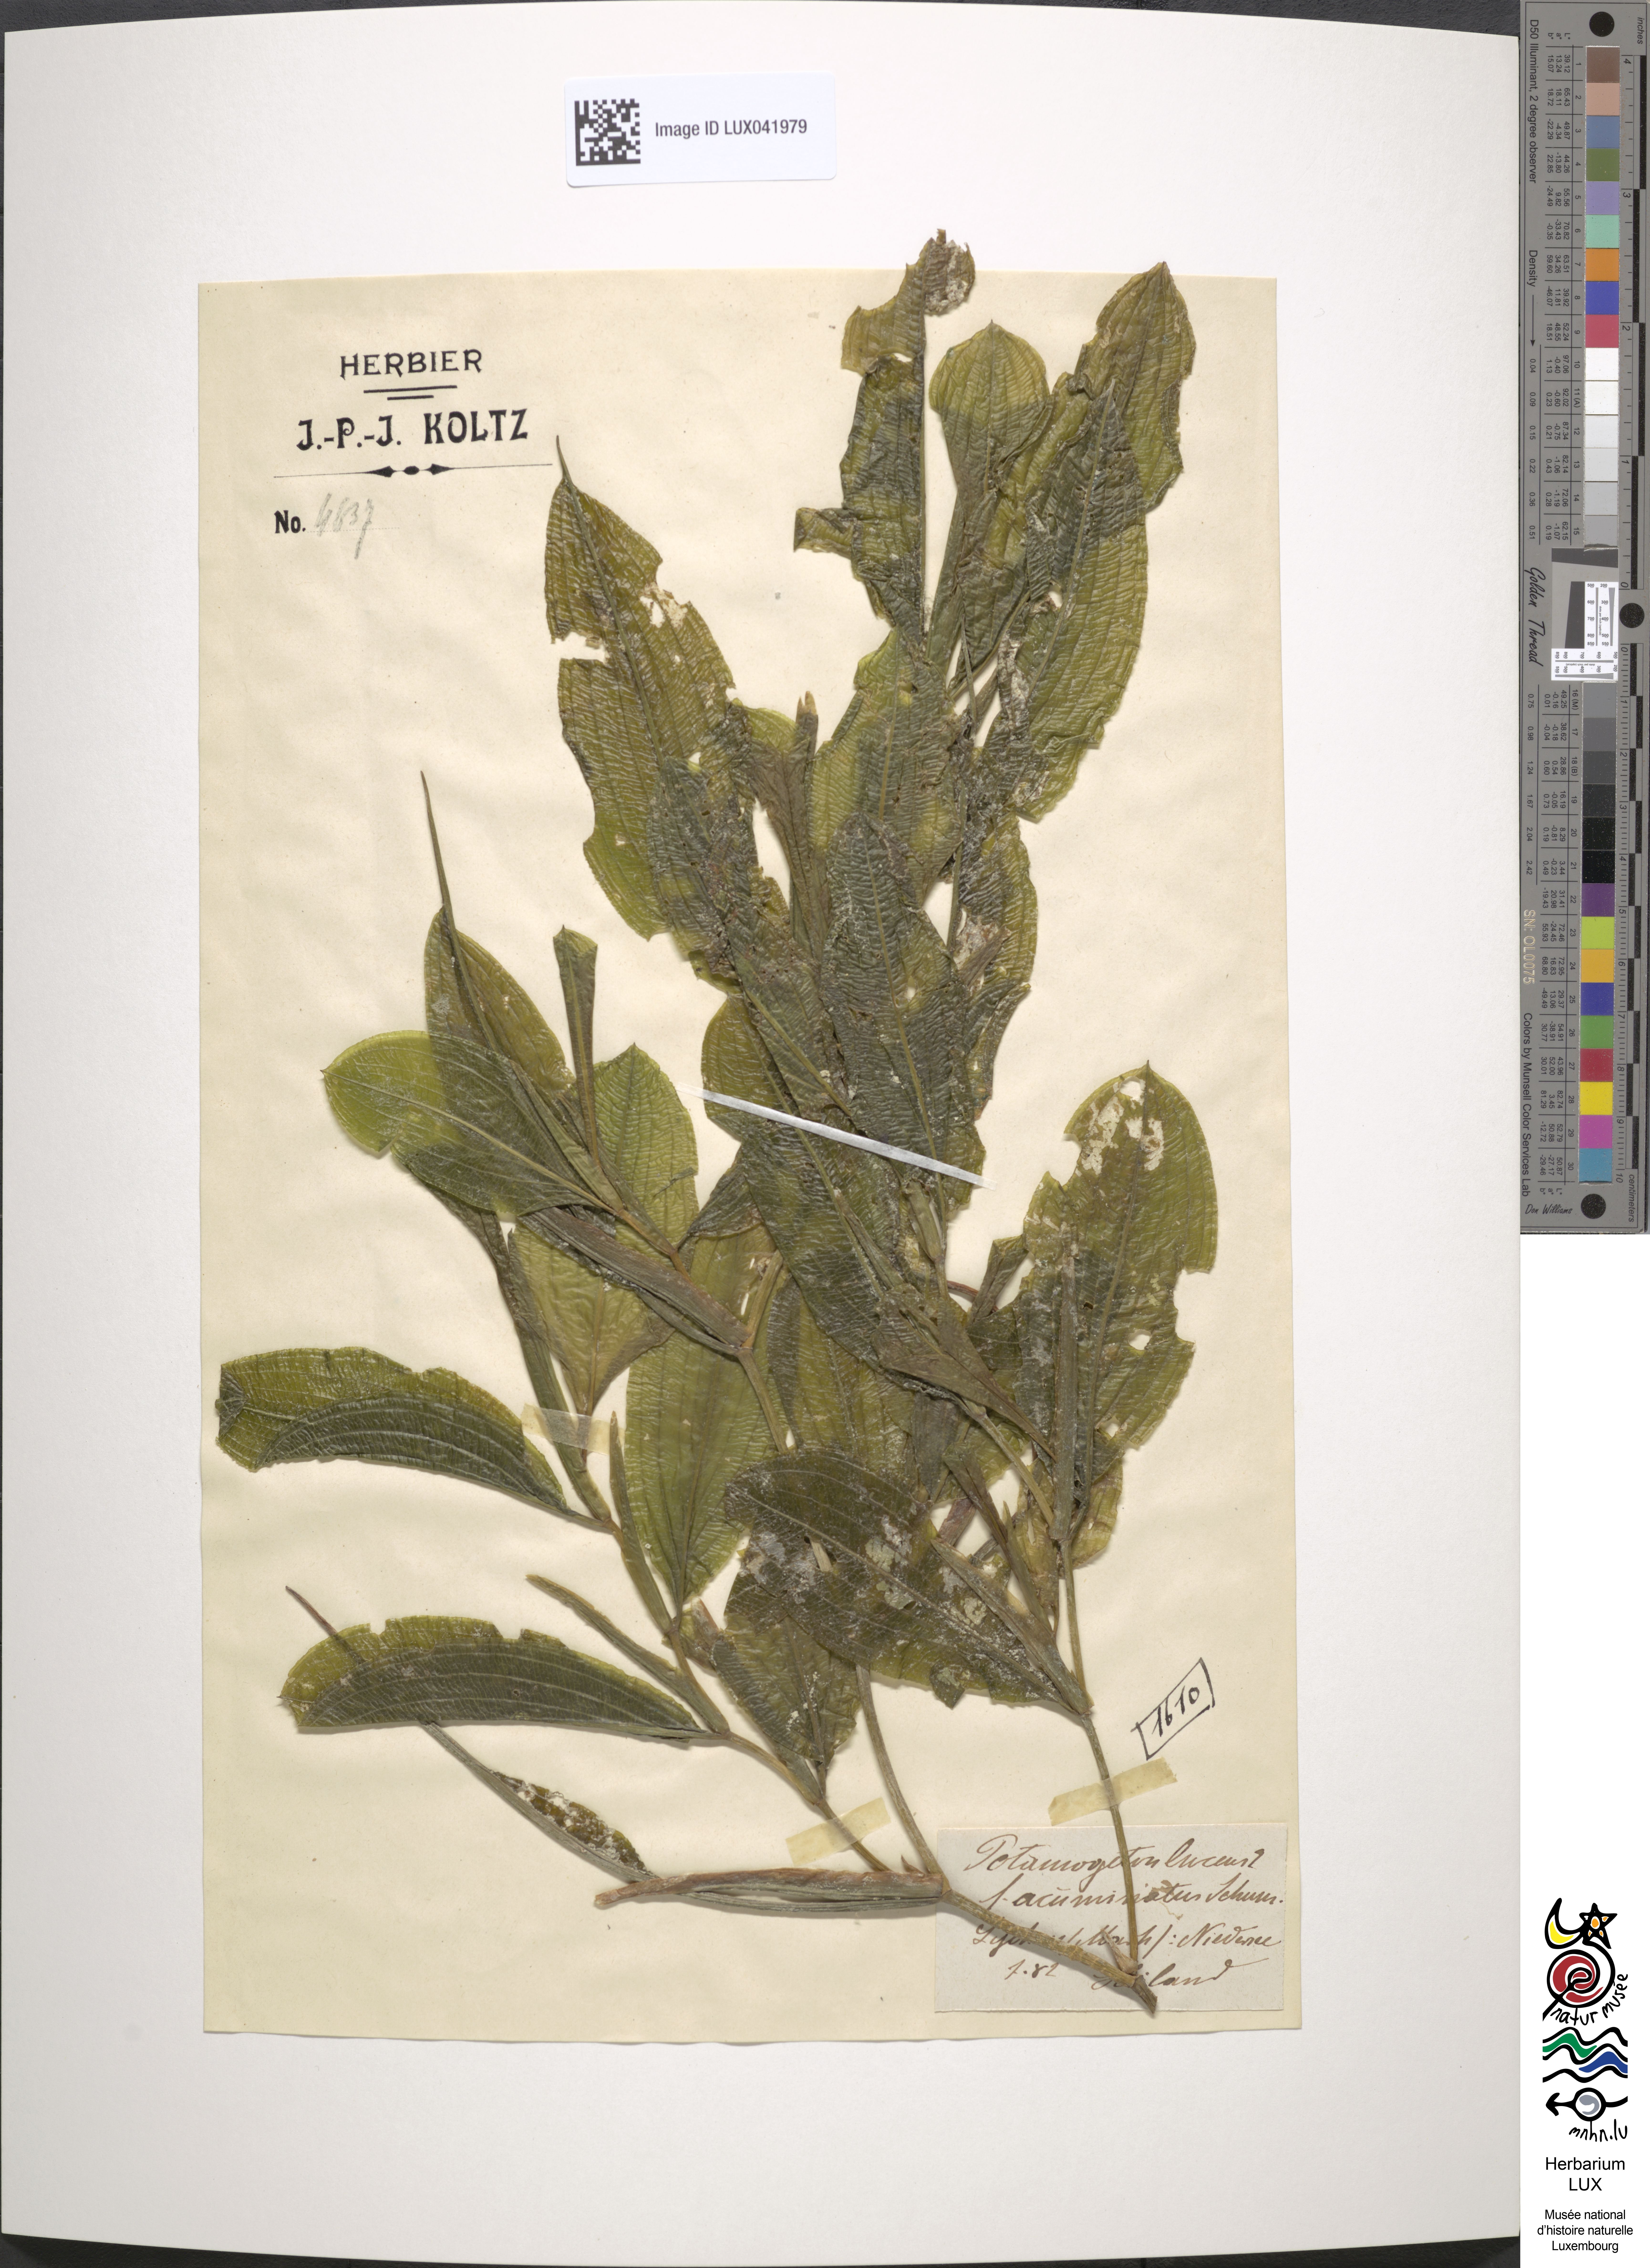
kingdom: Plantae
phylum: Tracheophyta
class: Liliopsida
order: Alismatales
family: Potamogetonaceae
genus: Potamogeton
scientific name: Potamogeton lucens
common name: Shining pondweed
